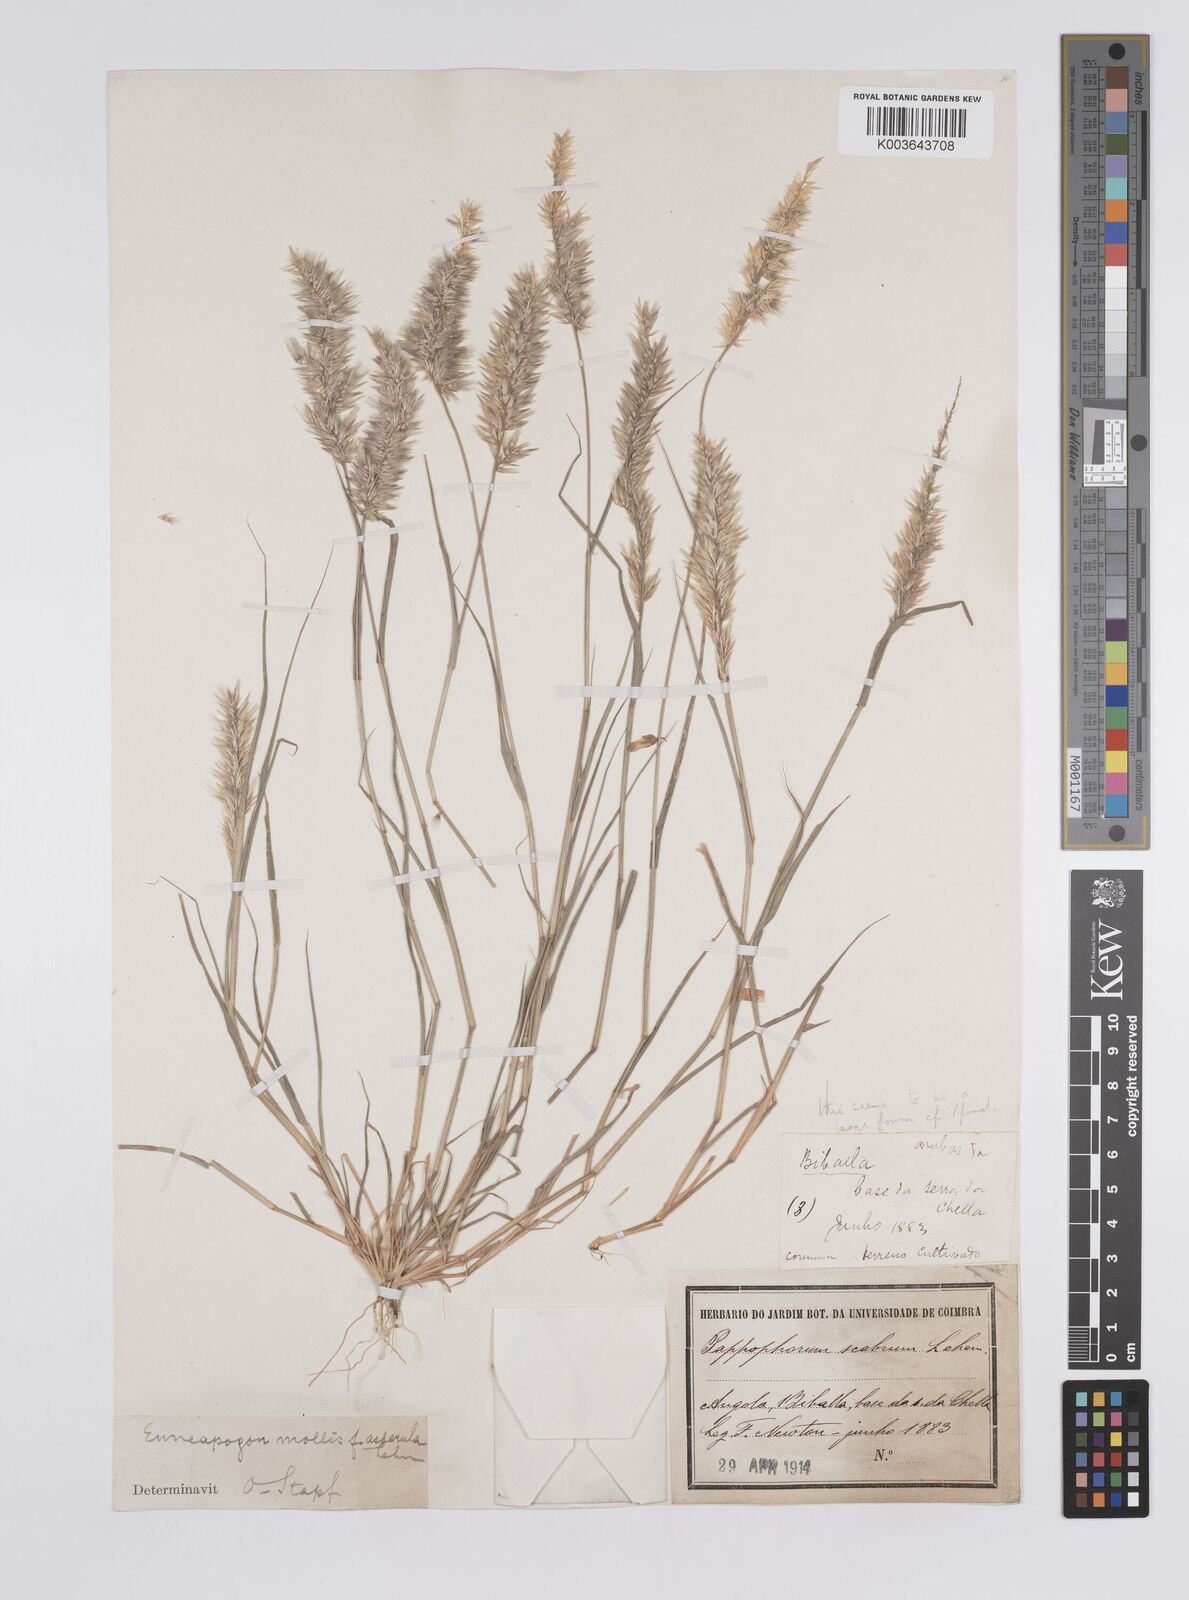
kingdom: Plantae
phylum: Tracheophyta
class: Liliopsida
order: Poales
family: Poaceae
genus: Enneapogon
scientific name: Enneapogon cenchroides
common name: Soft feather pappusgrass
